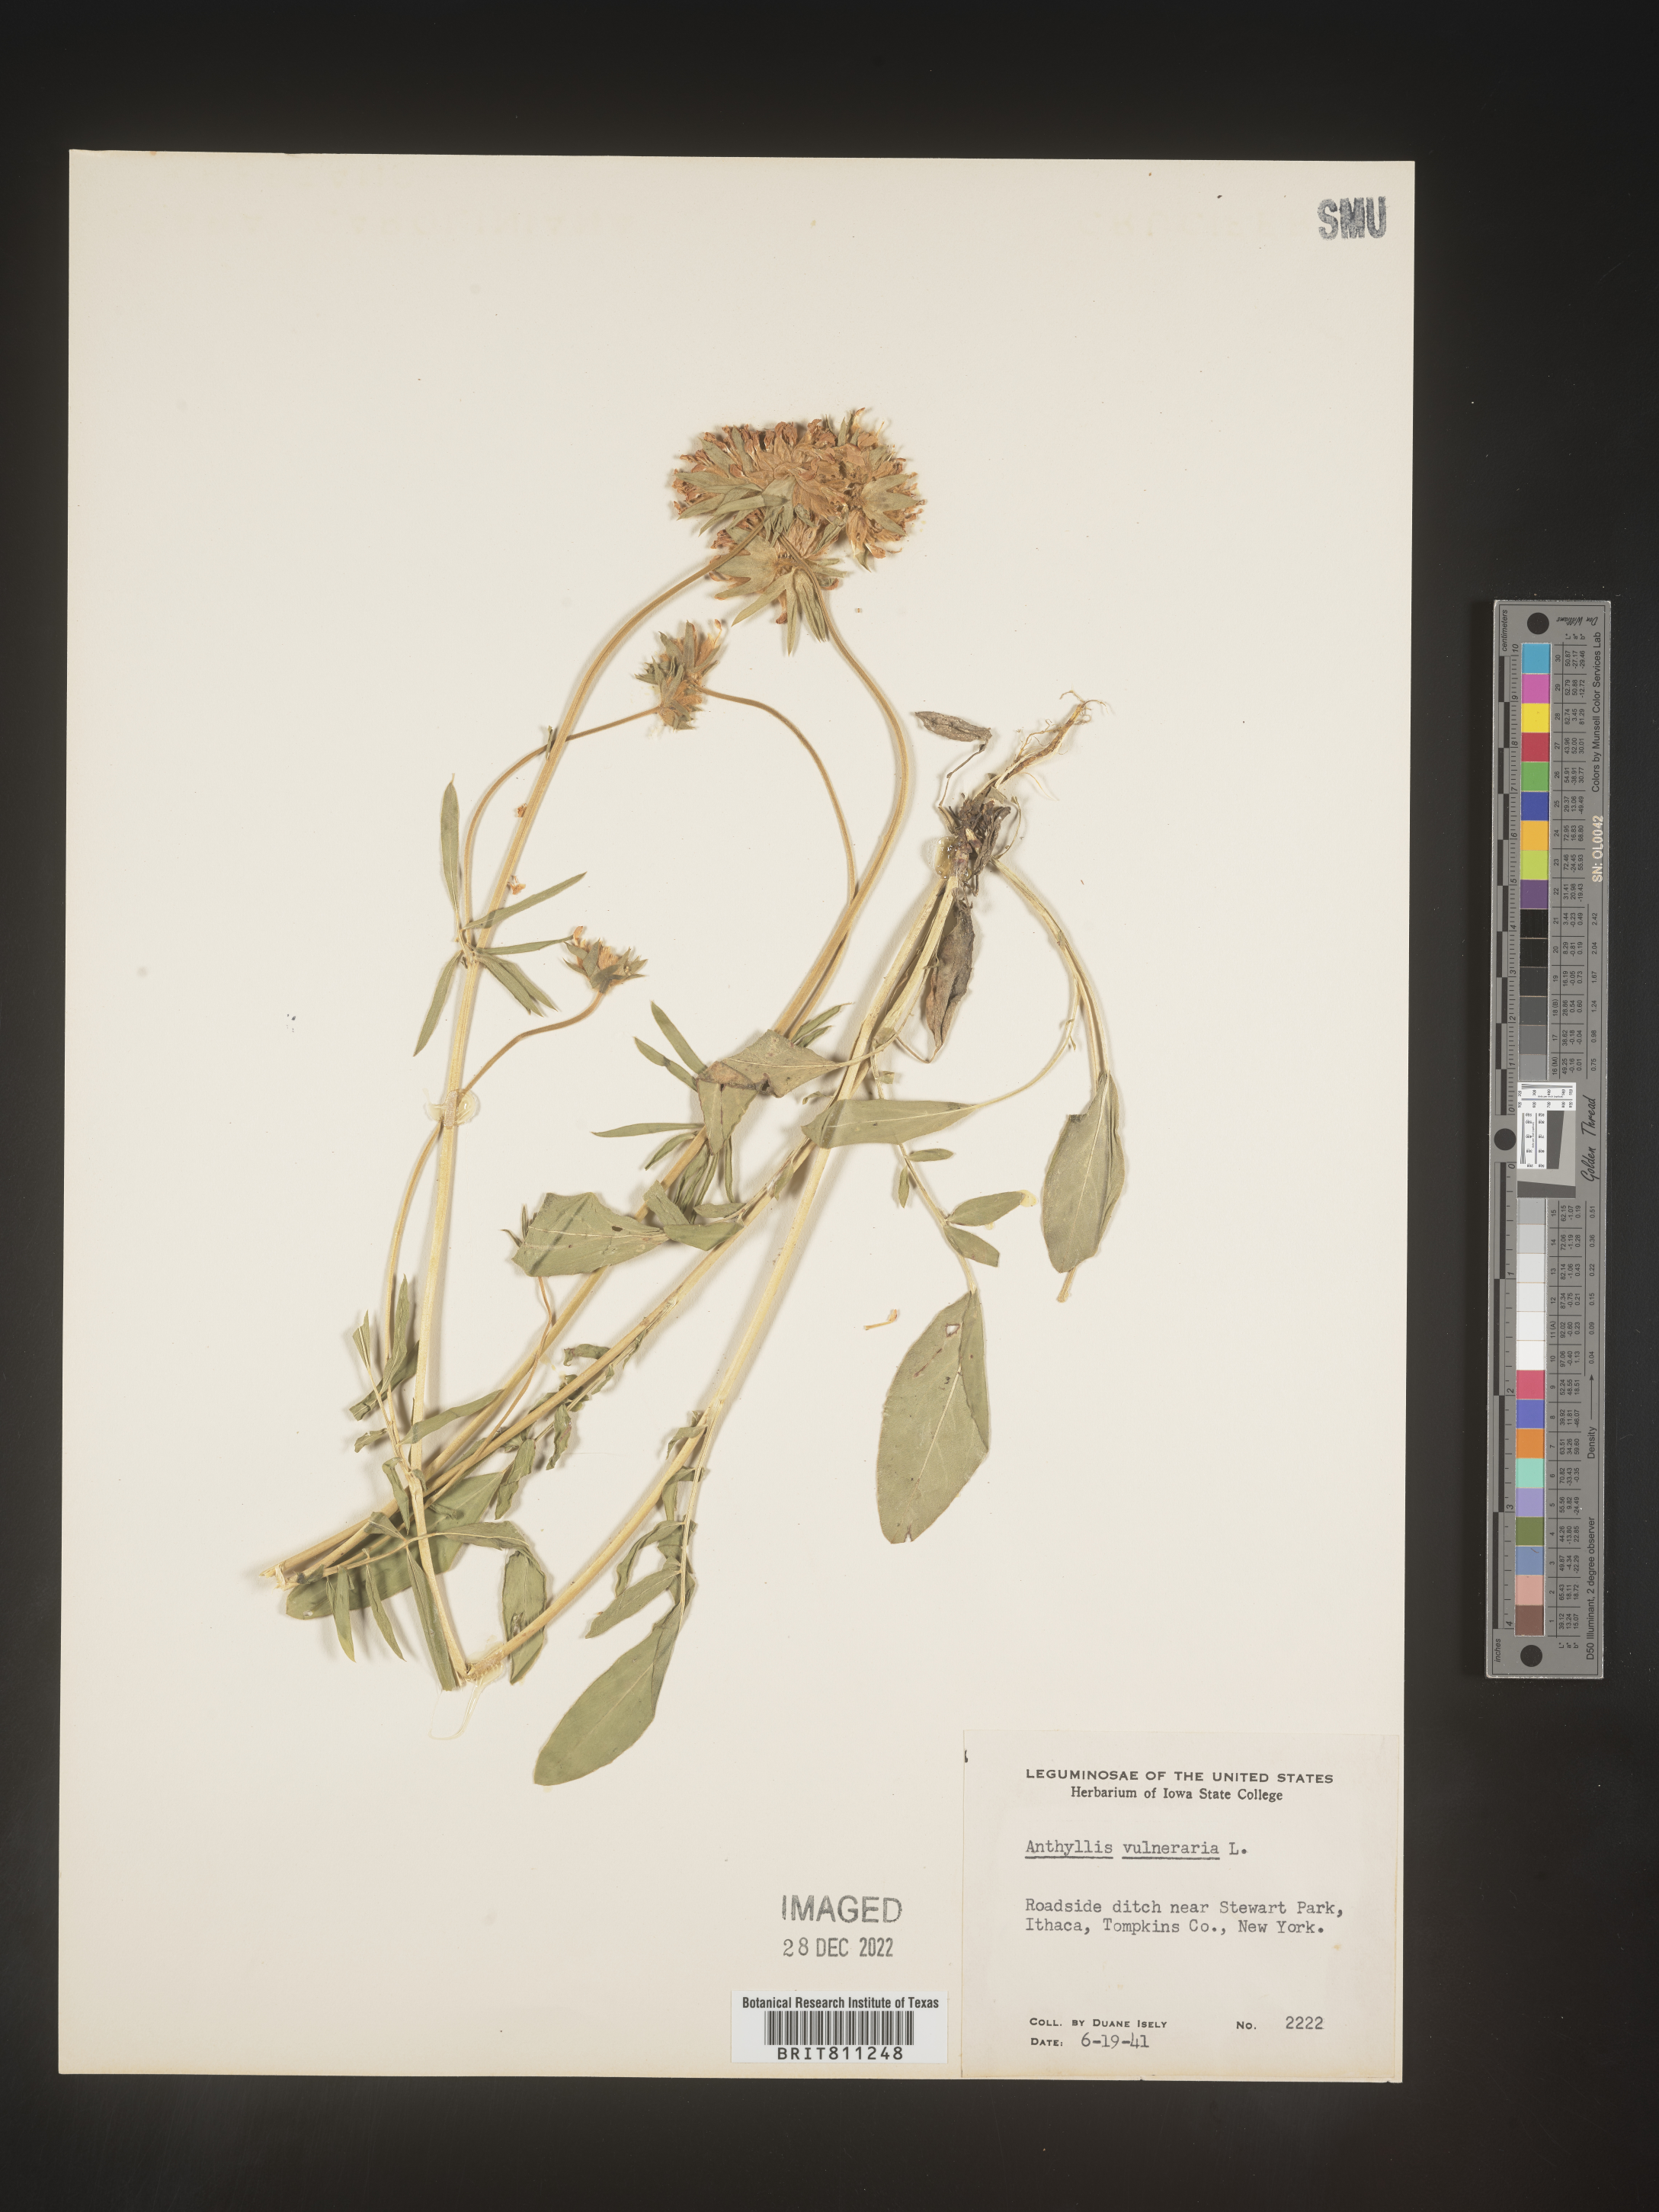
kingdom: Plantae
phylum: Tracheophyta
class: Magnoliopsida
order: Fabales
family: Fabaceae
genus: Anthyllis
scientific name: Anthyllis vulneraria
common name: Kidney vetch
